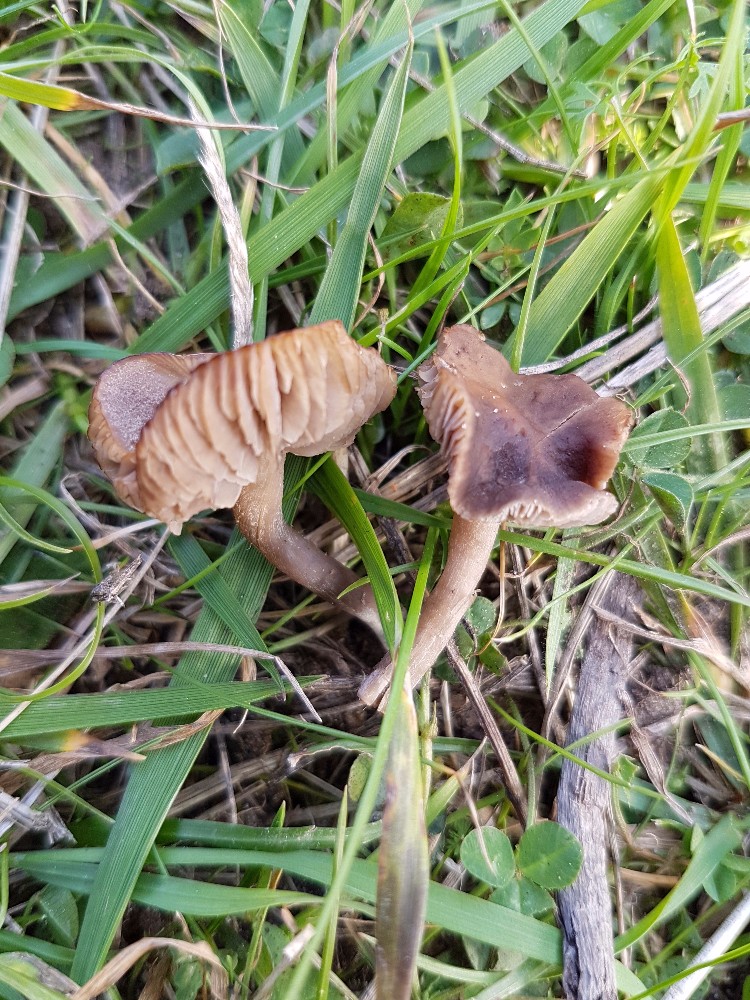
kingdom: Fungi
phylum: Basidiomycota
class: Agaricomycetes
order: Agaricales
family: Tricholomataceae
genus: Dermoloma
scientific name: Dermoloma pseudocuneifolium
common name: mark-nonnehat
